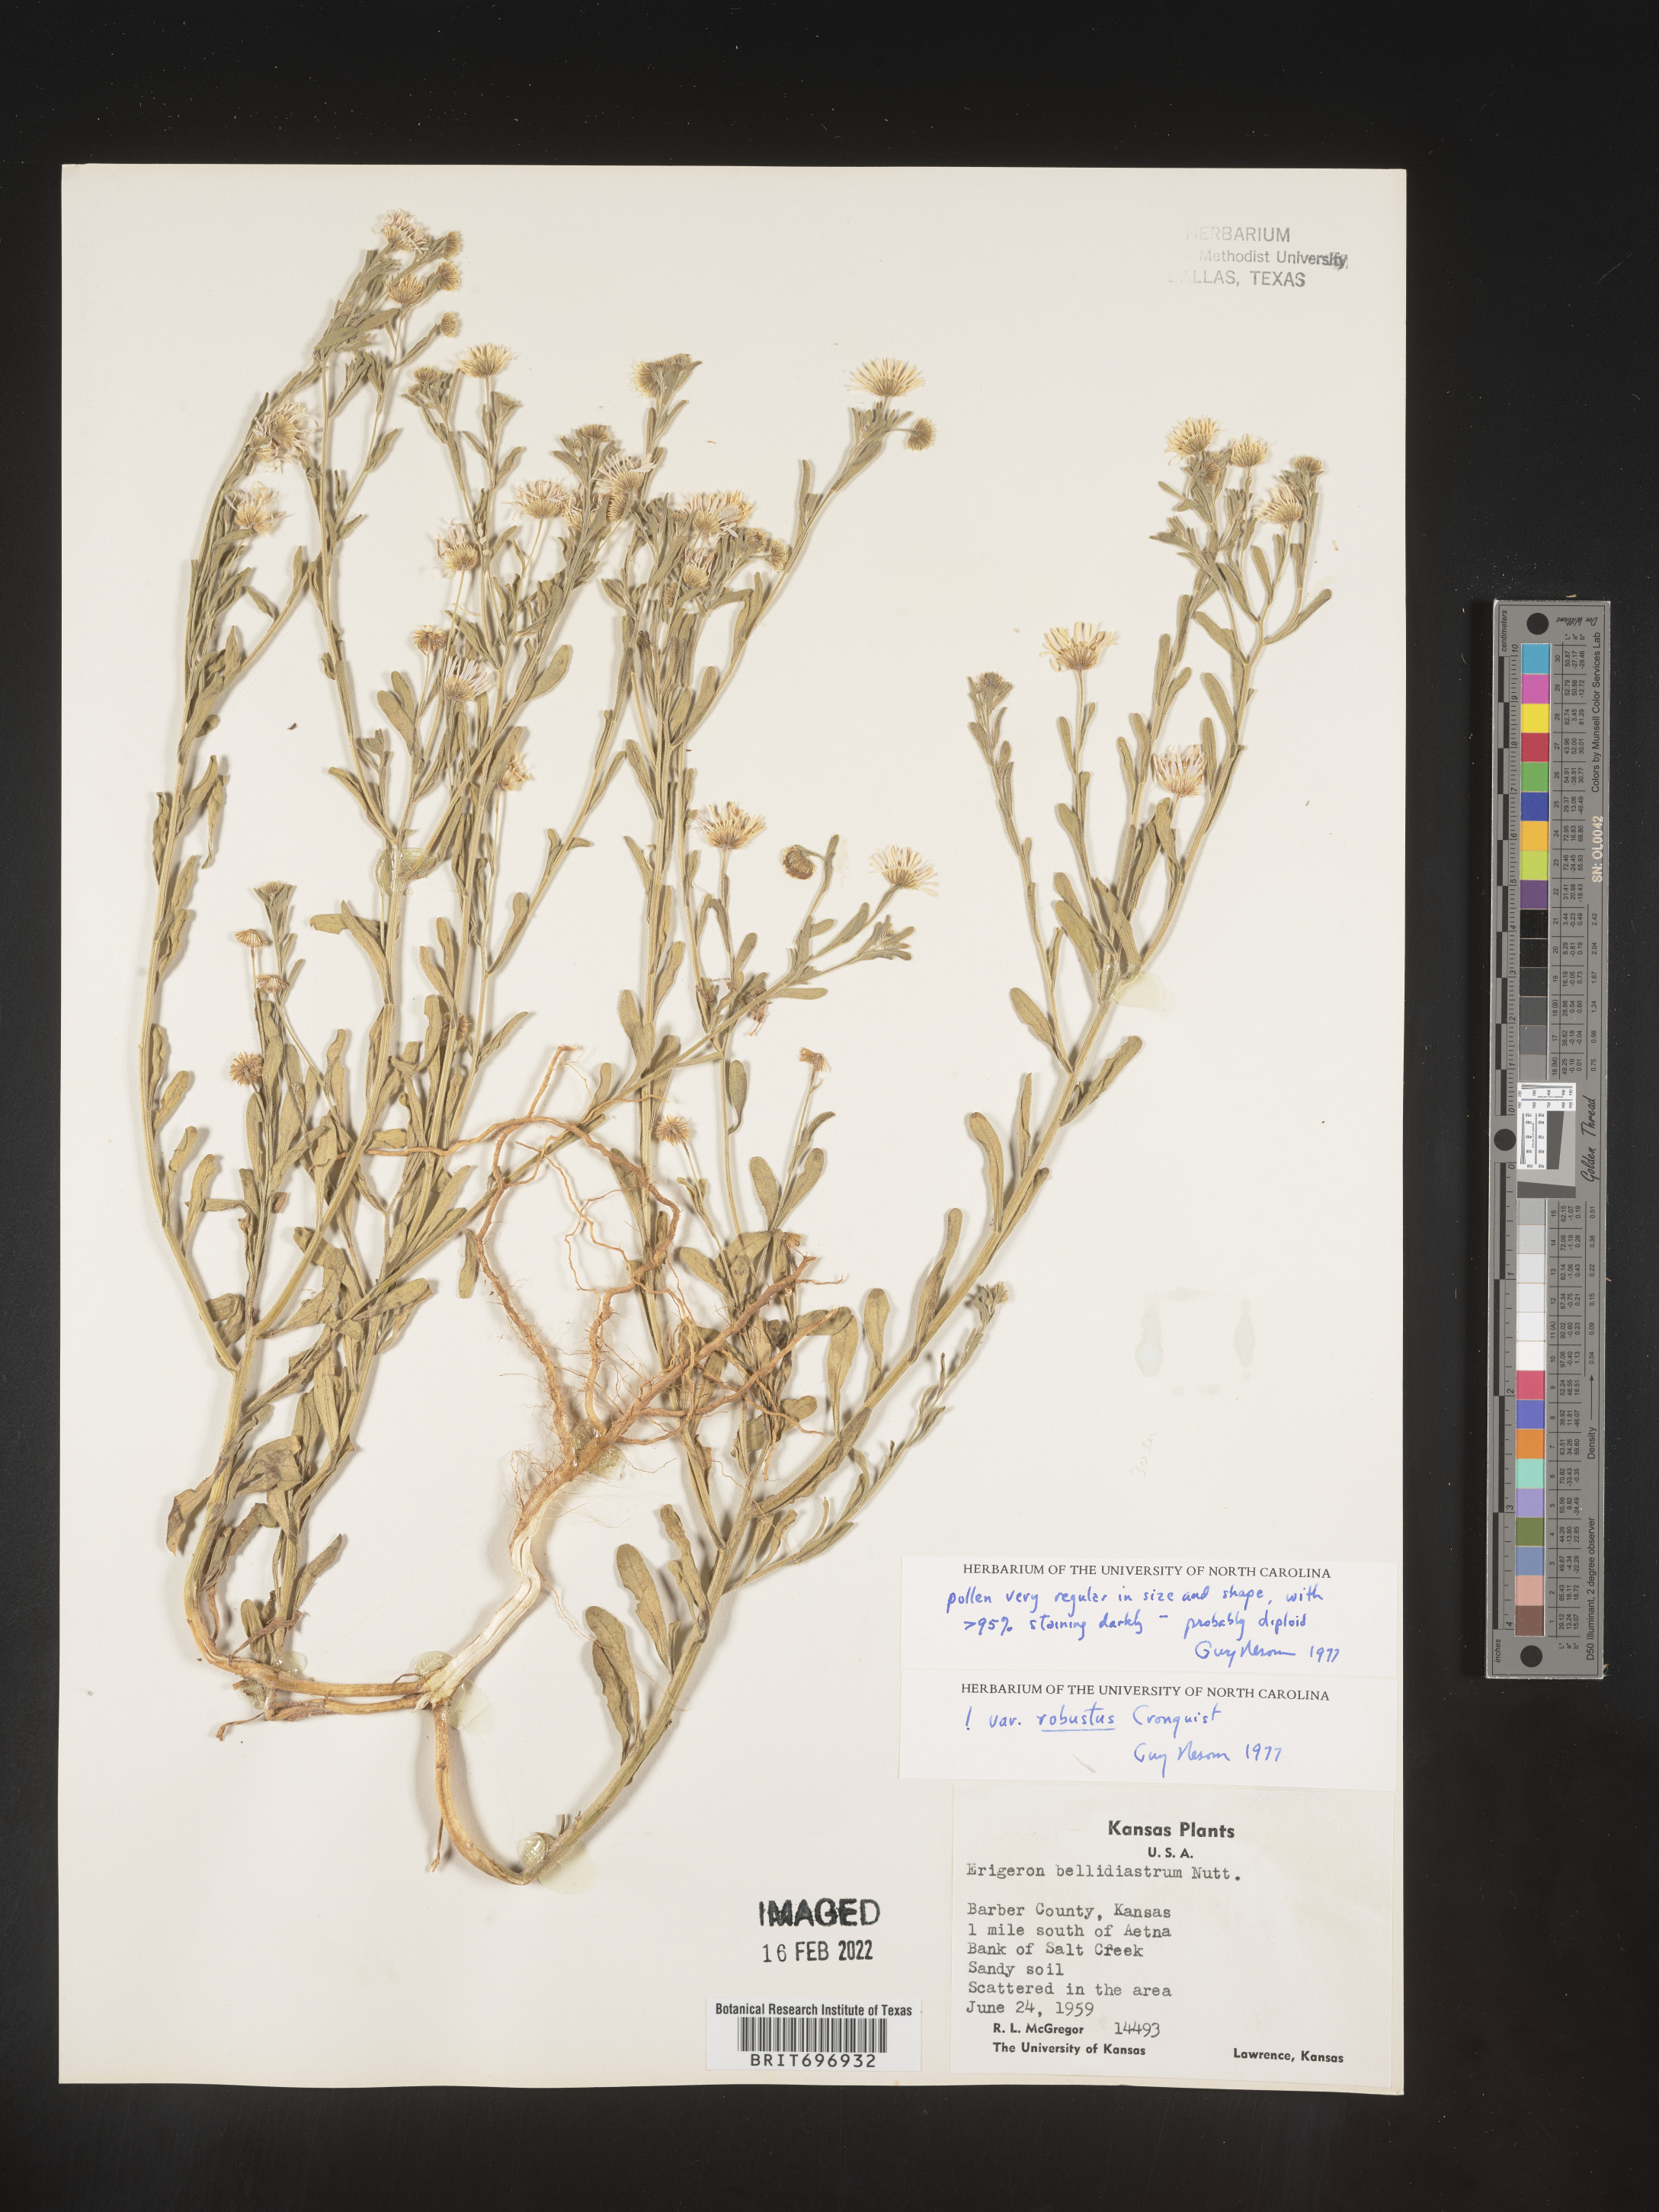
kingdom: Plantae
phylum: Tracheophyta
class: Magnoliopsida
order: Asterales
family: Asteraceae
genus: Erigeron
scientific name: Erigeron bellidiastrum
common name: Sand fleabane
